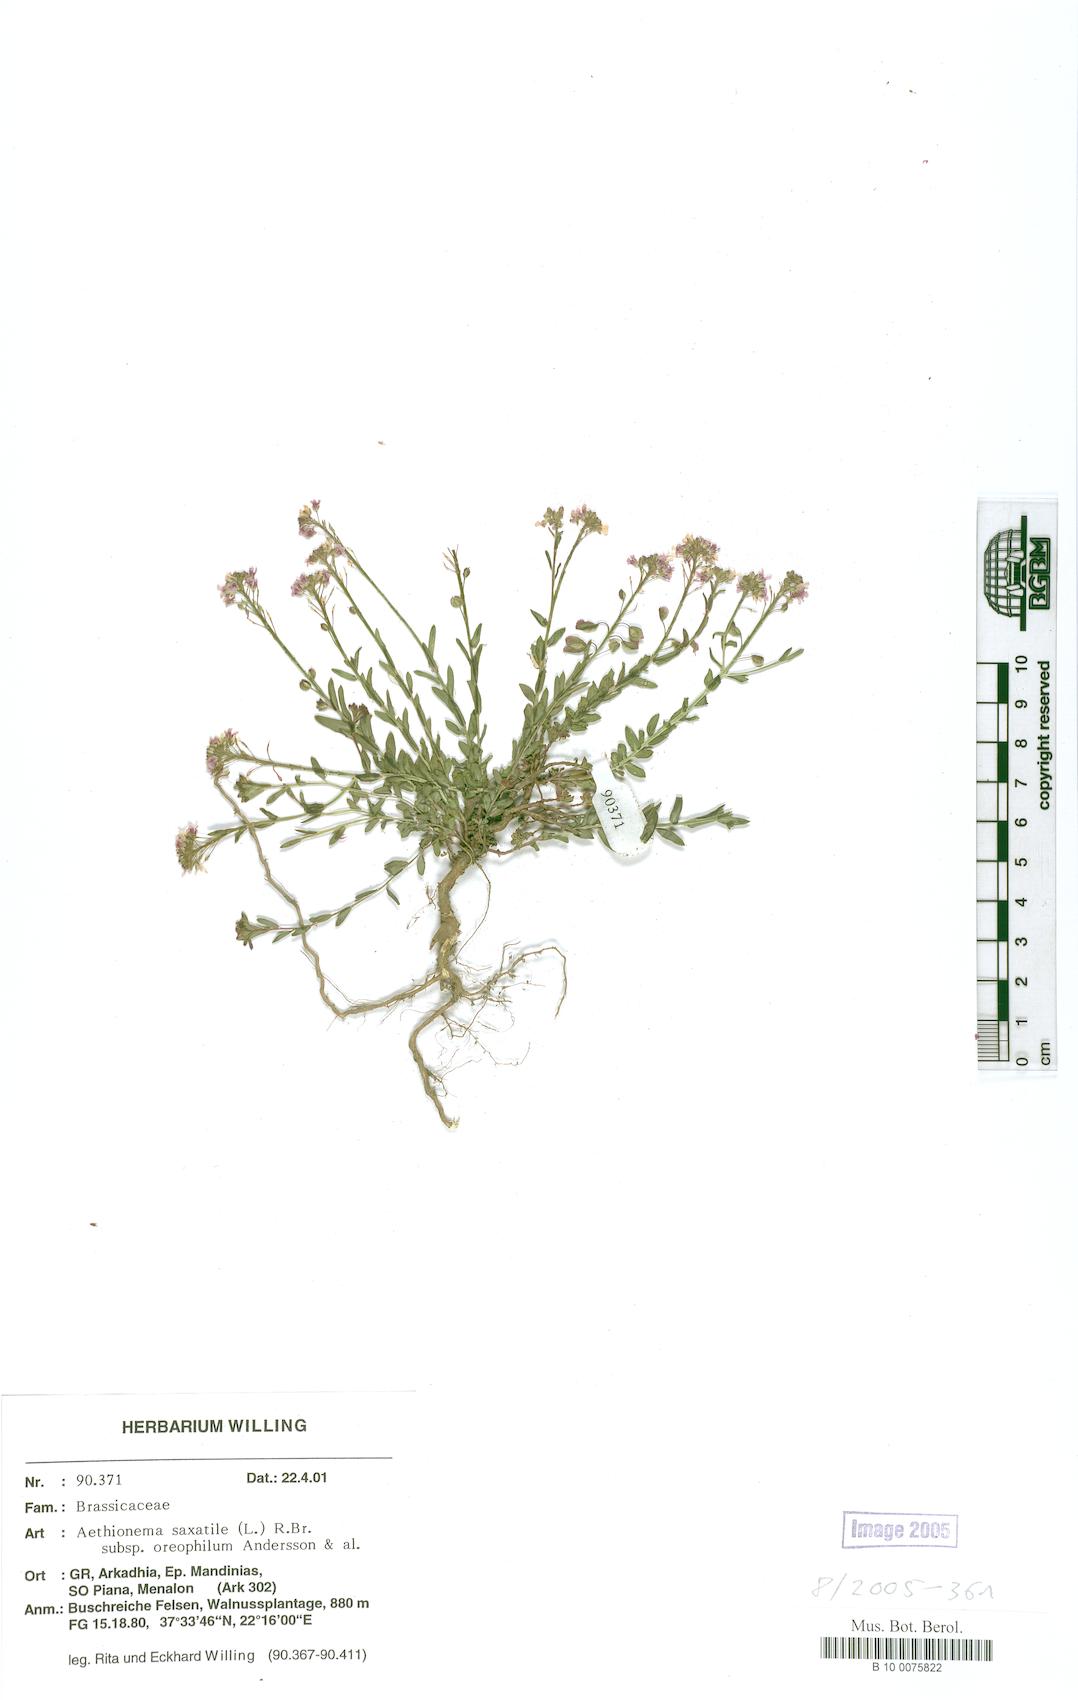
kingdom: Plantae
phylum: Tracheophyta
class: Magnoliopsida
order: Brassicales
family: Brassicaceae
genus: Aethionema
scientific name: Aethionema saxatile
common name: Burnt candytuft
